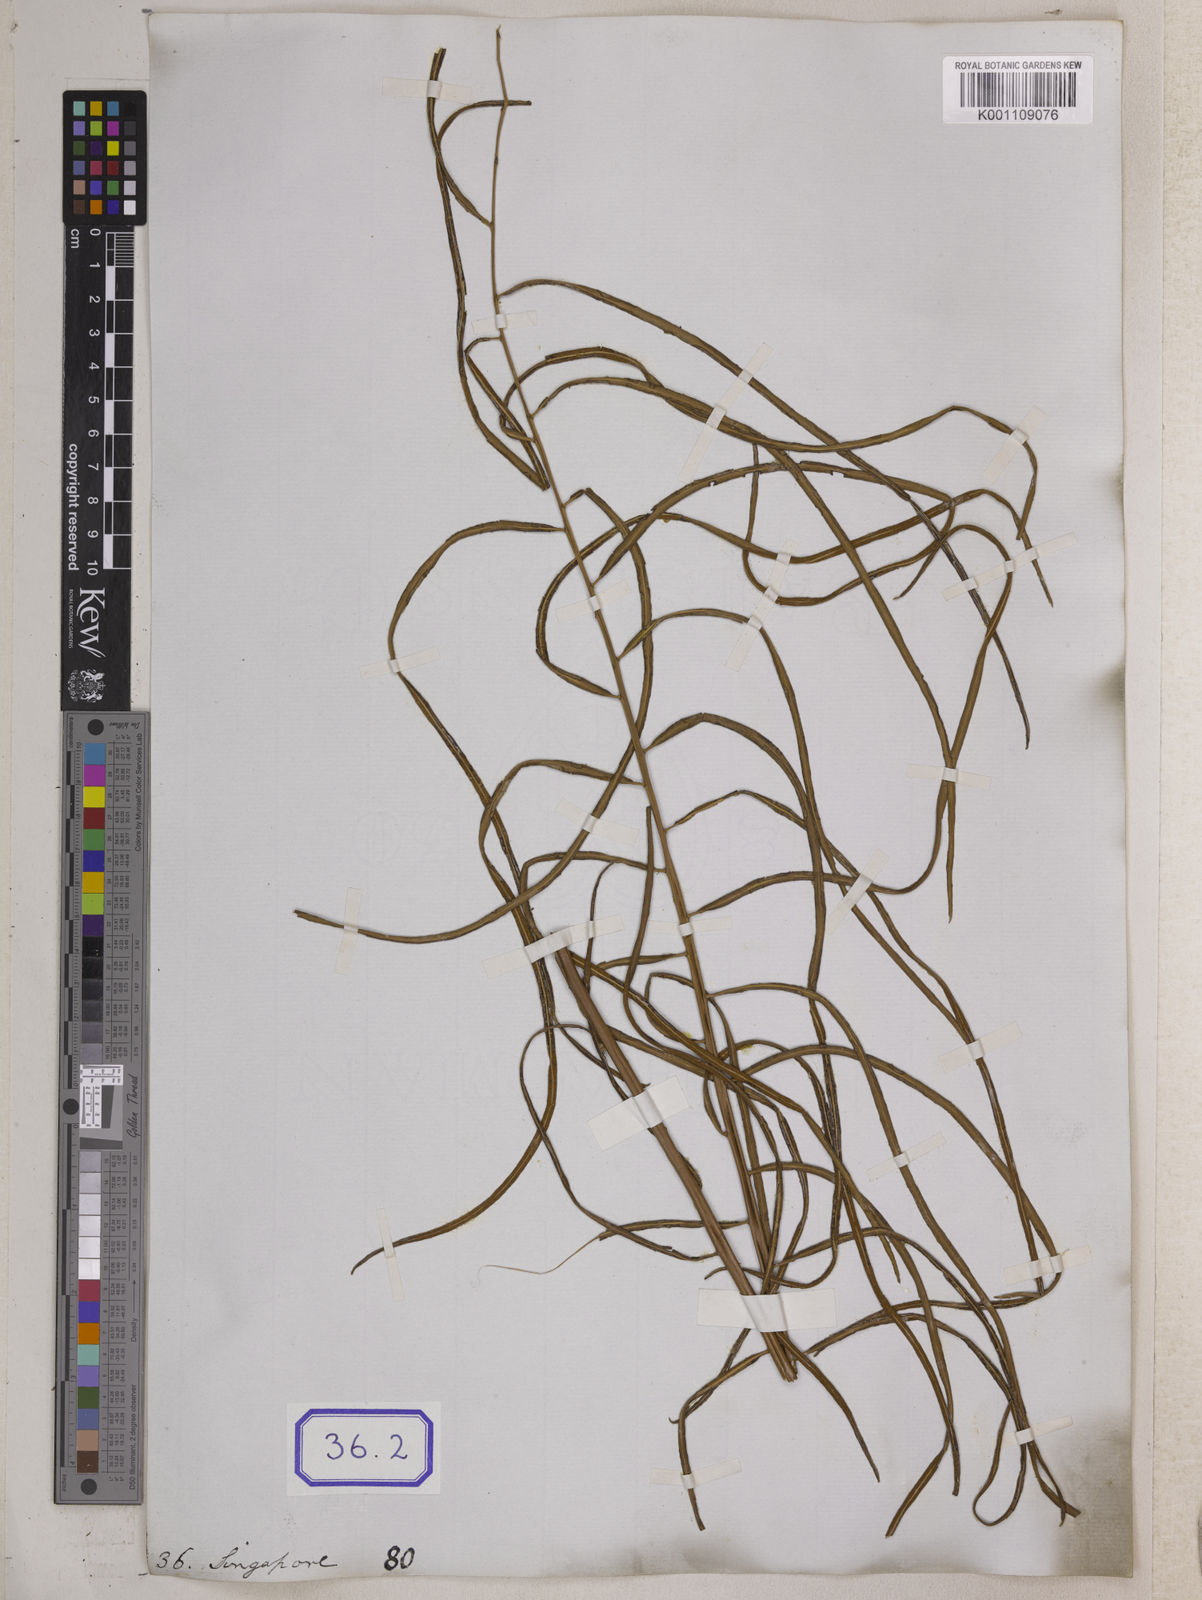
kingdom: Plantae
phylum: Tracheophyta
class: Polypodiopsida
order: Polypodiales
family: Blechnaceae
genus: Stenochlaena
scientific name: Stenochlaena palustris
